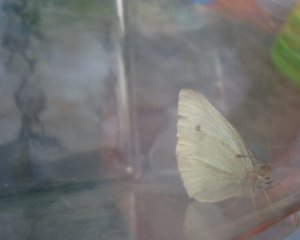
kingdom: Animalia
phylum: Arthropoda
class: Insecta
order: Lepidoptera
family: Pieridae
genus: Pieris
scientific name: Pieris rapae
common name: Cabbage White
